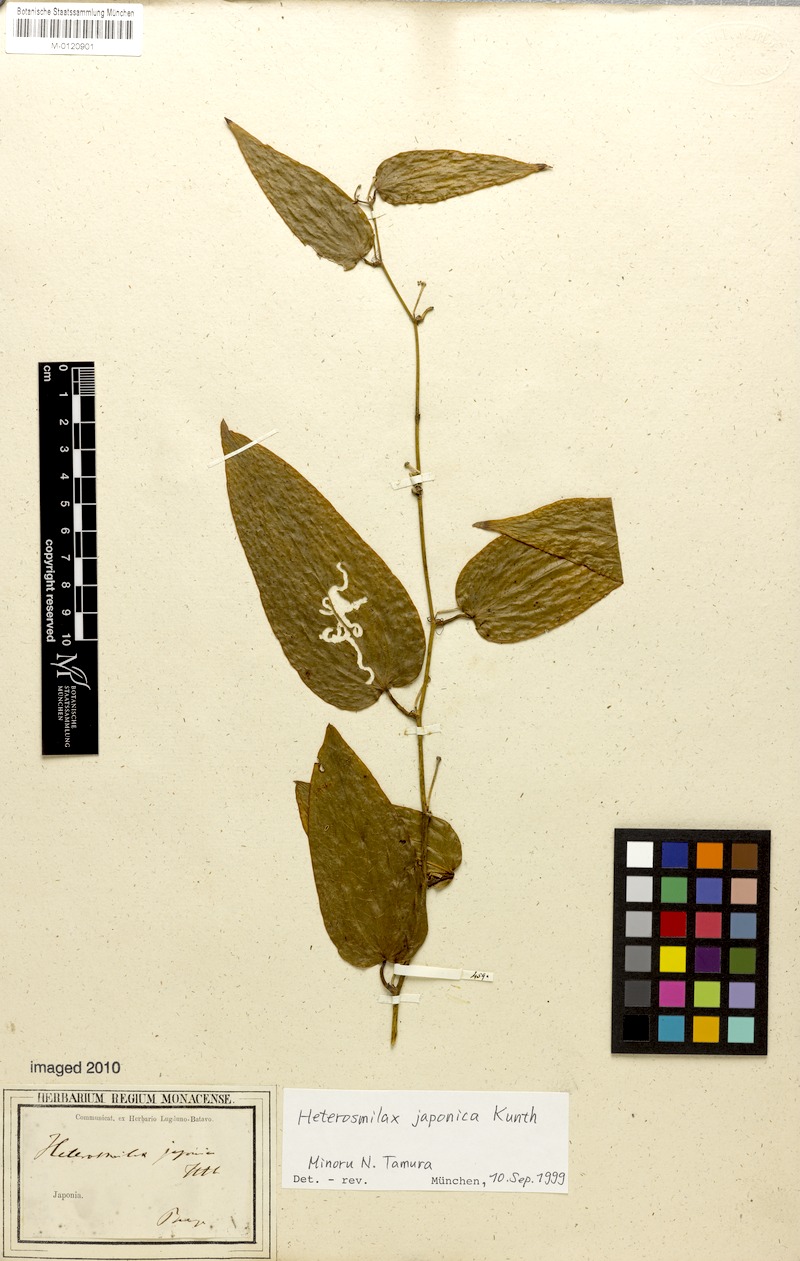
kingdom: Plantae
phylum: Tracheophyta
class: Liliopsida
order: Liliales
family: Smilacaceae
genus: Smilax
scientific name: Smilax bockii
